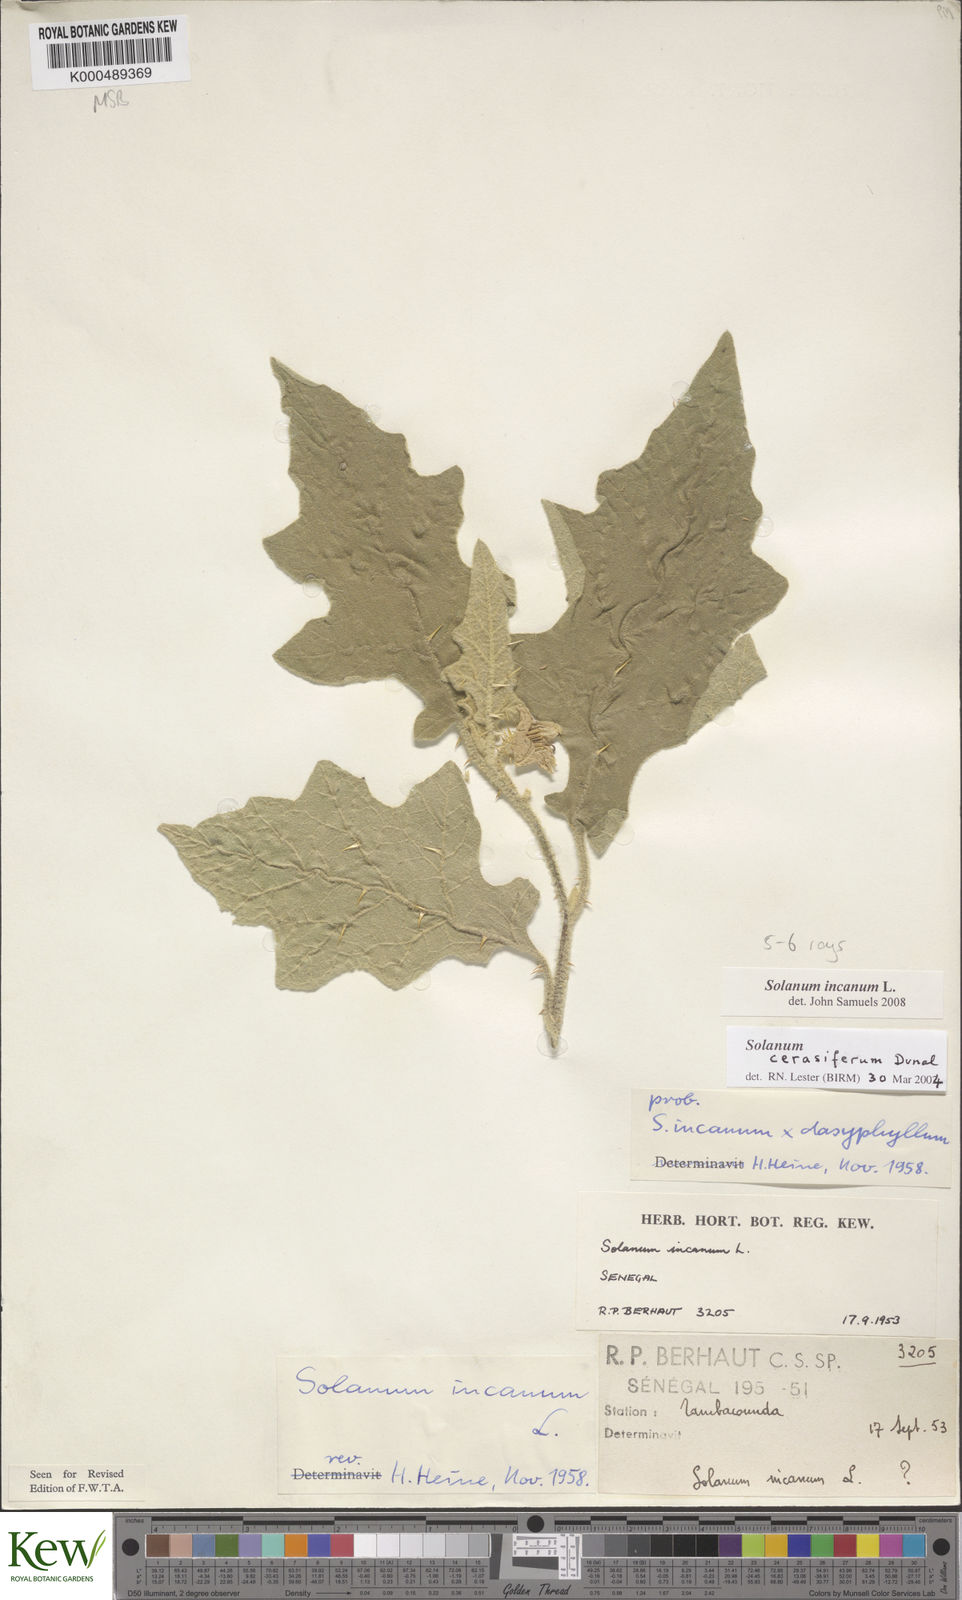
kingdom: Plantae
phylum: Tracheophyta
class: Magnoliopsida
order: Solanales
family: Solanaceae
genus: Solanum
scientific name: Solanum incanum
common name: Bitter apple
